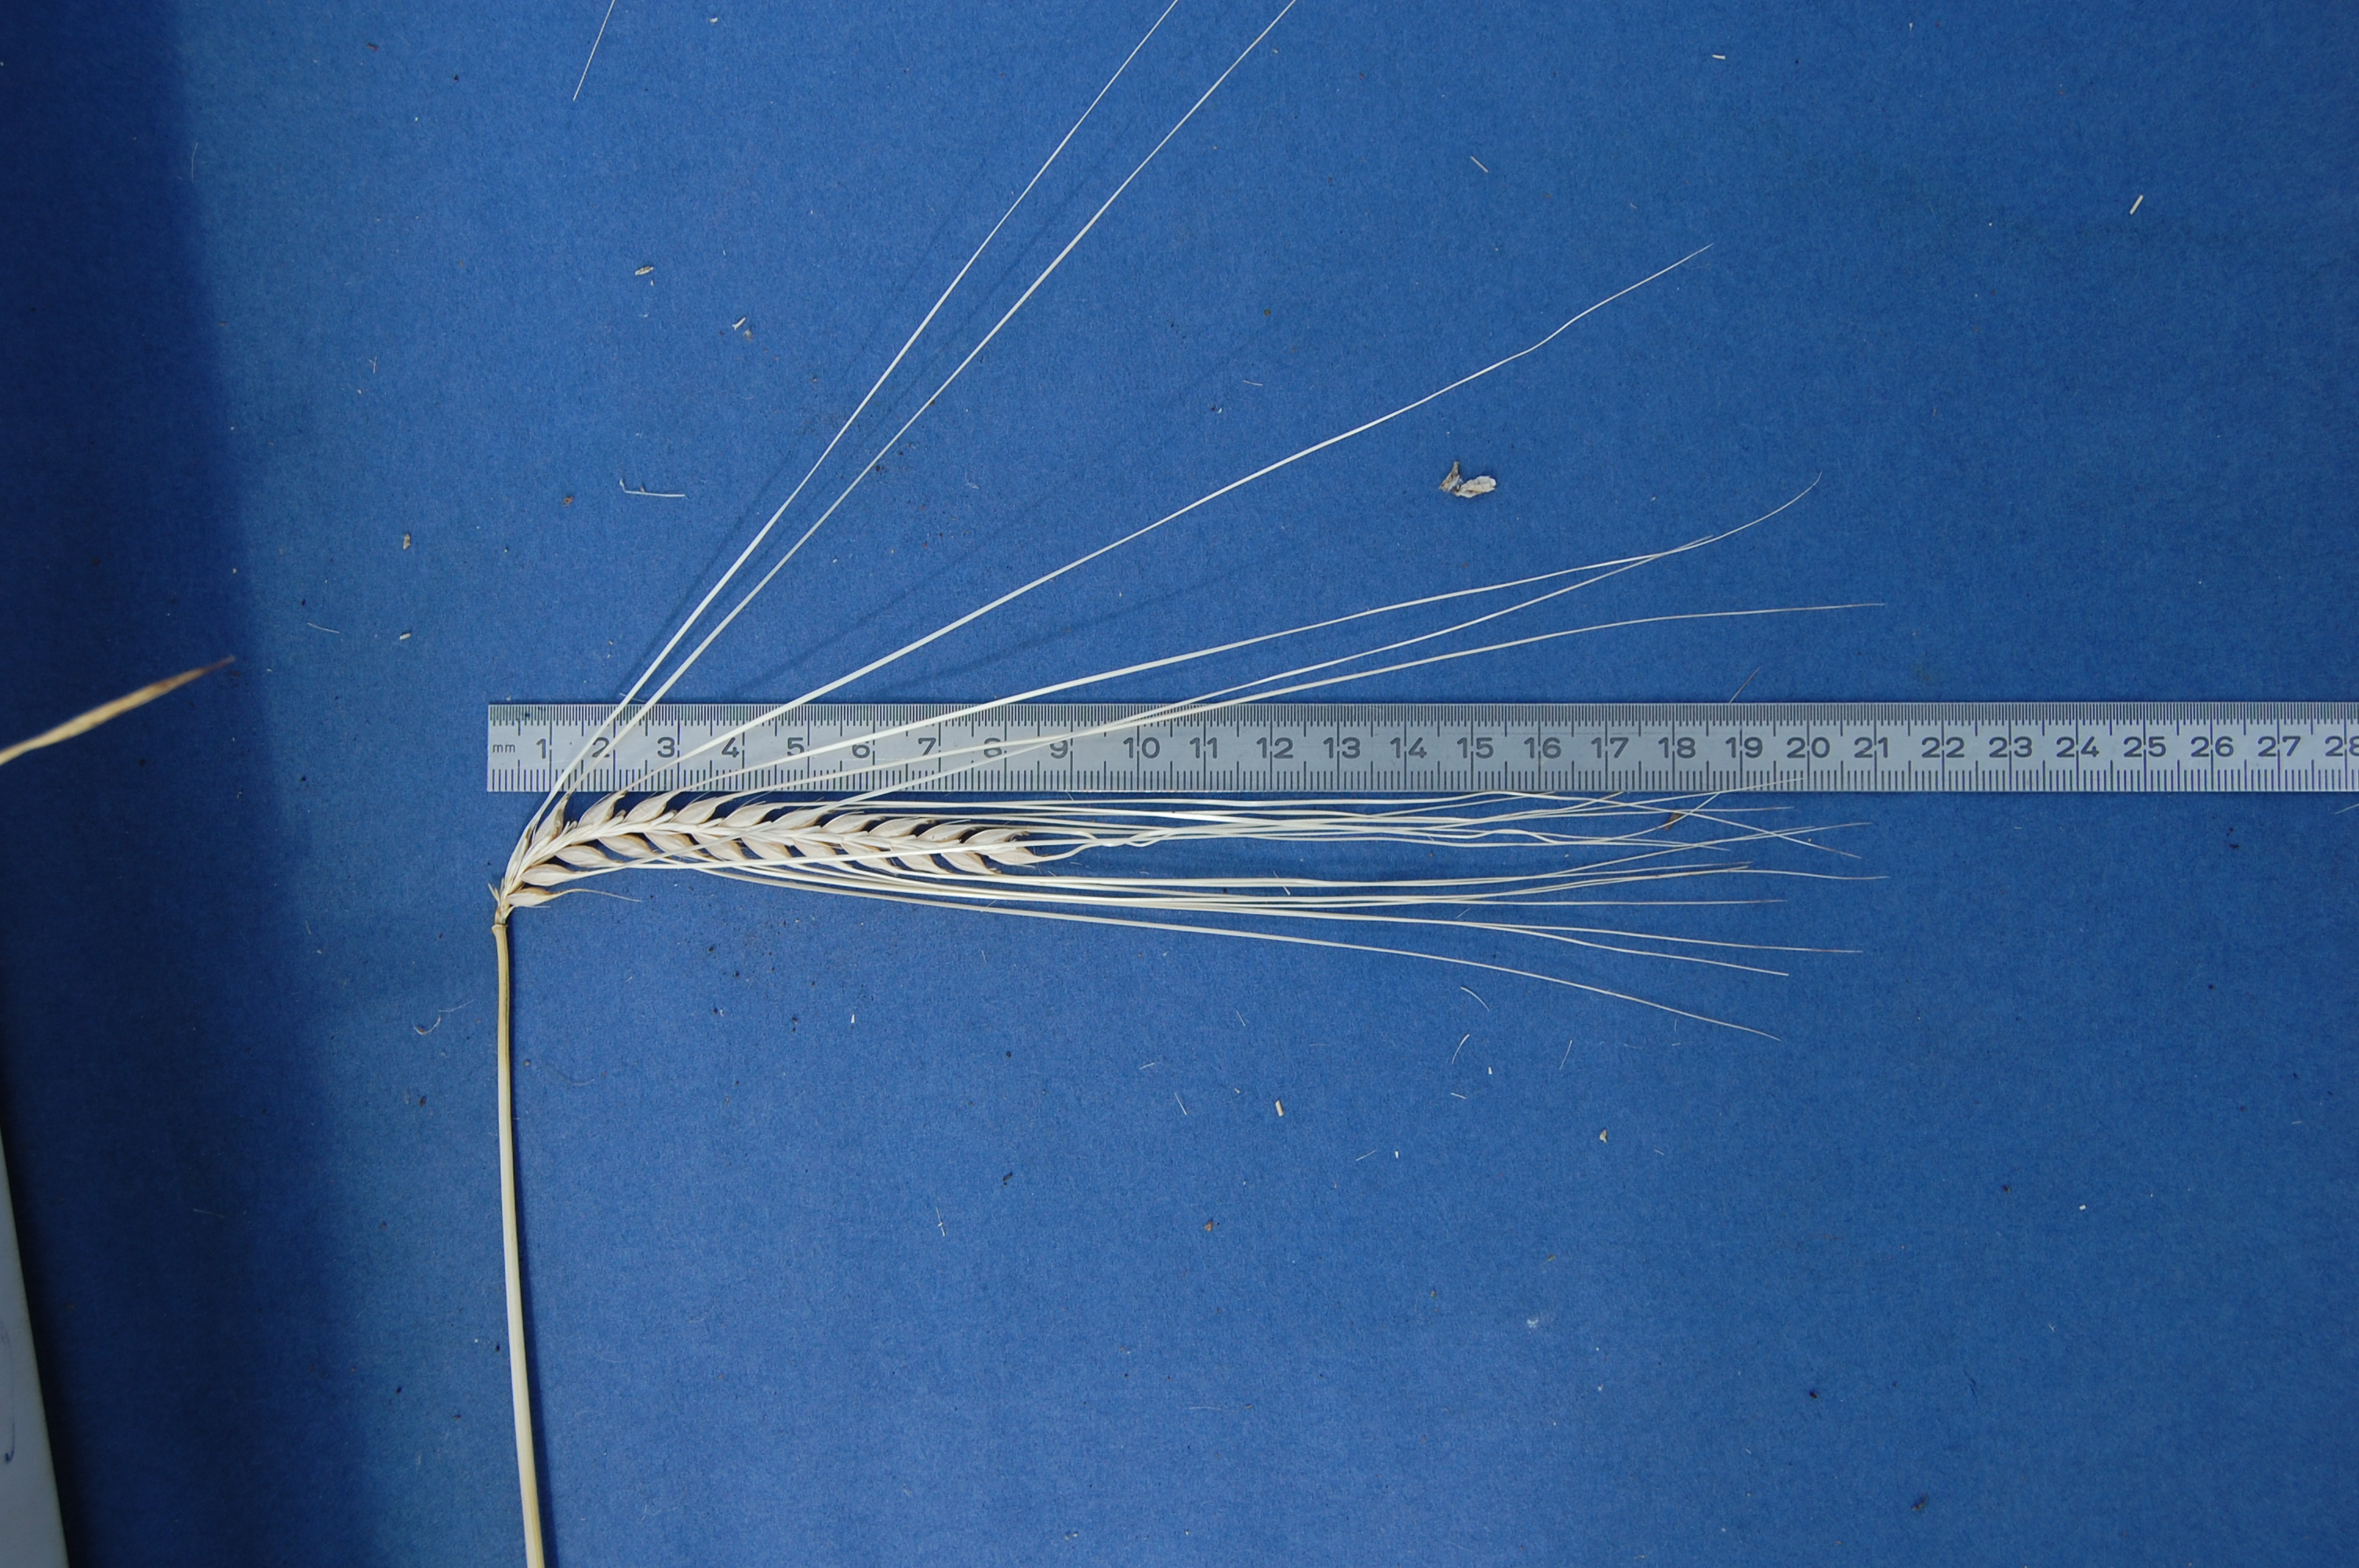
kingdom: Plantae
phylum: Tracheophyta
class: Liliopsida
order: Poales
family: Poaceae
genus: Hordeum
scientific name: Hordeum vulgare
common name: Common barley
